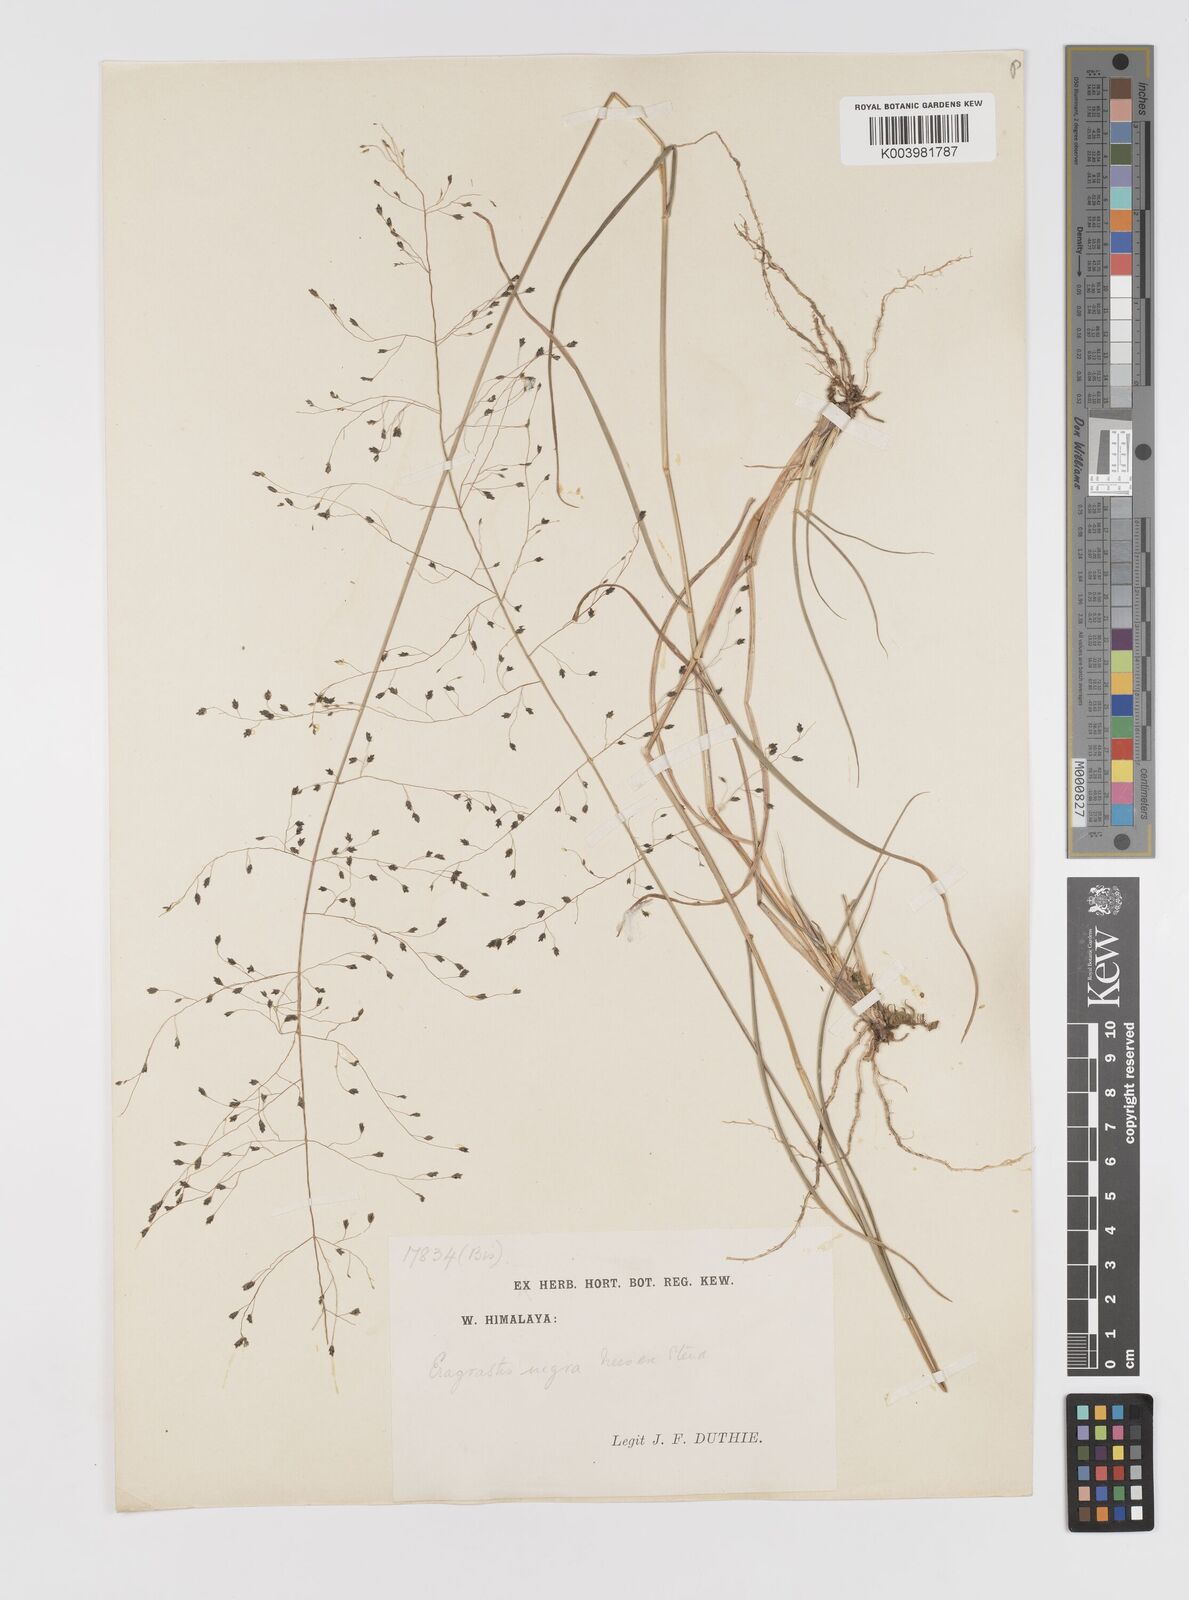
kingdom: Plantae
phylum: Tracheophyta
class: Liliopsida
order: Poales
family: Poaceae
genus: Eragrostis
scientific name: Eragrostis nigra
